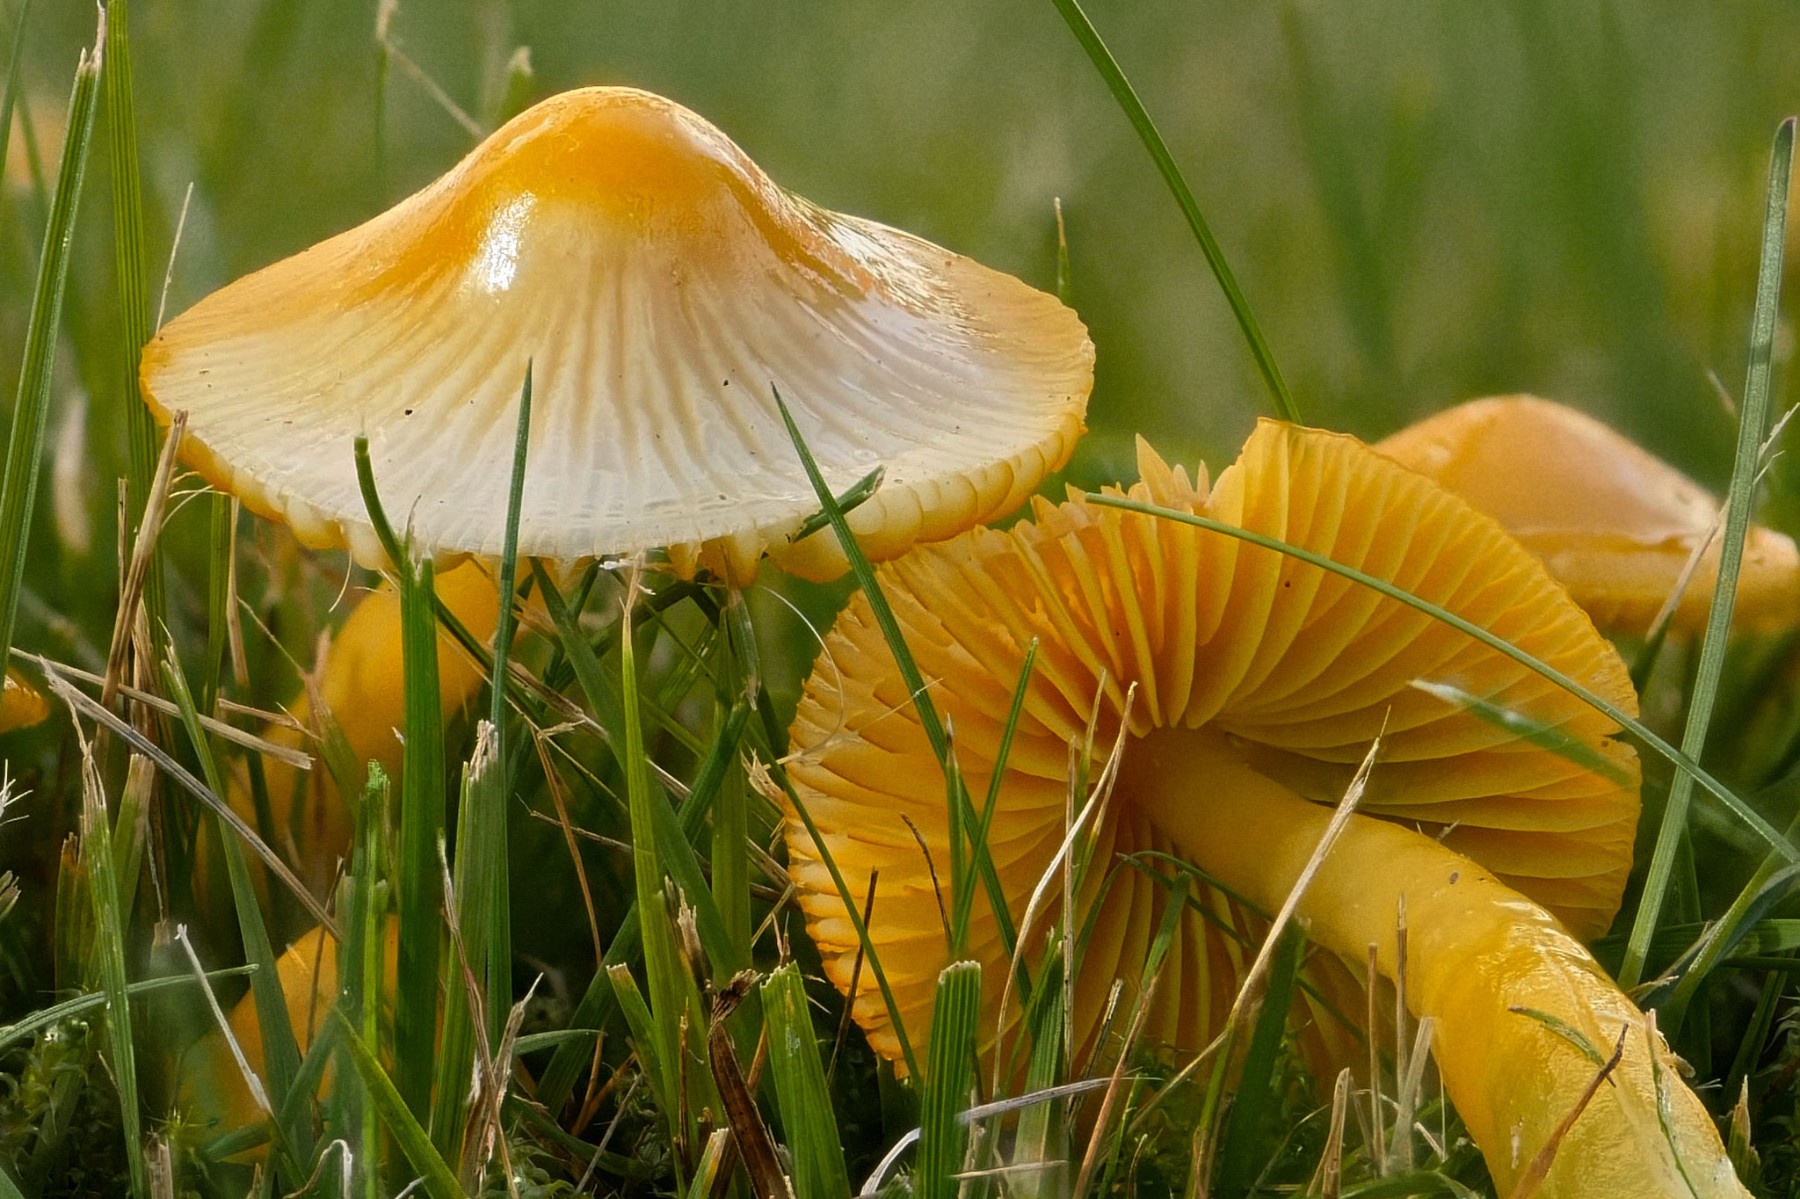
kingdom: Fungi
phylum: Basidiomycota
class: Agaricomycetes
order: Agaricales
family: Hygrophoraceae
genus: Gliophorus
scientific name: Gliophorus psittacinus
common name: papegøje-vokshat
